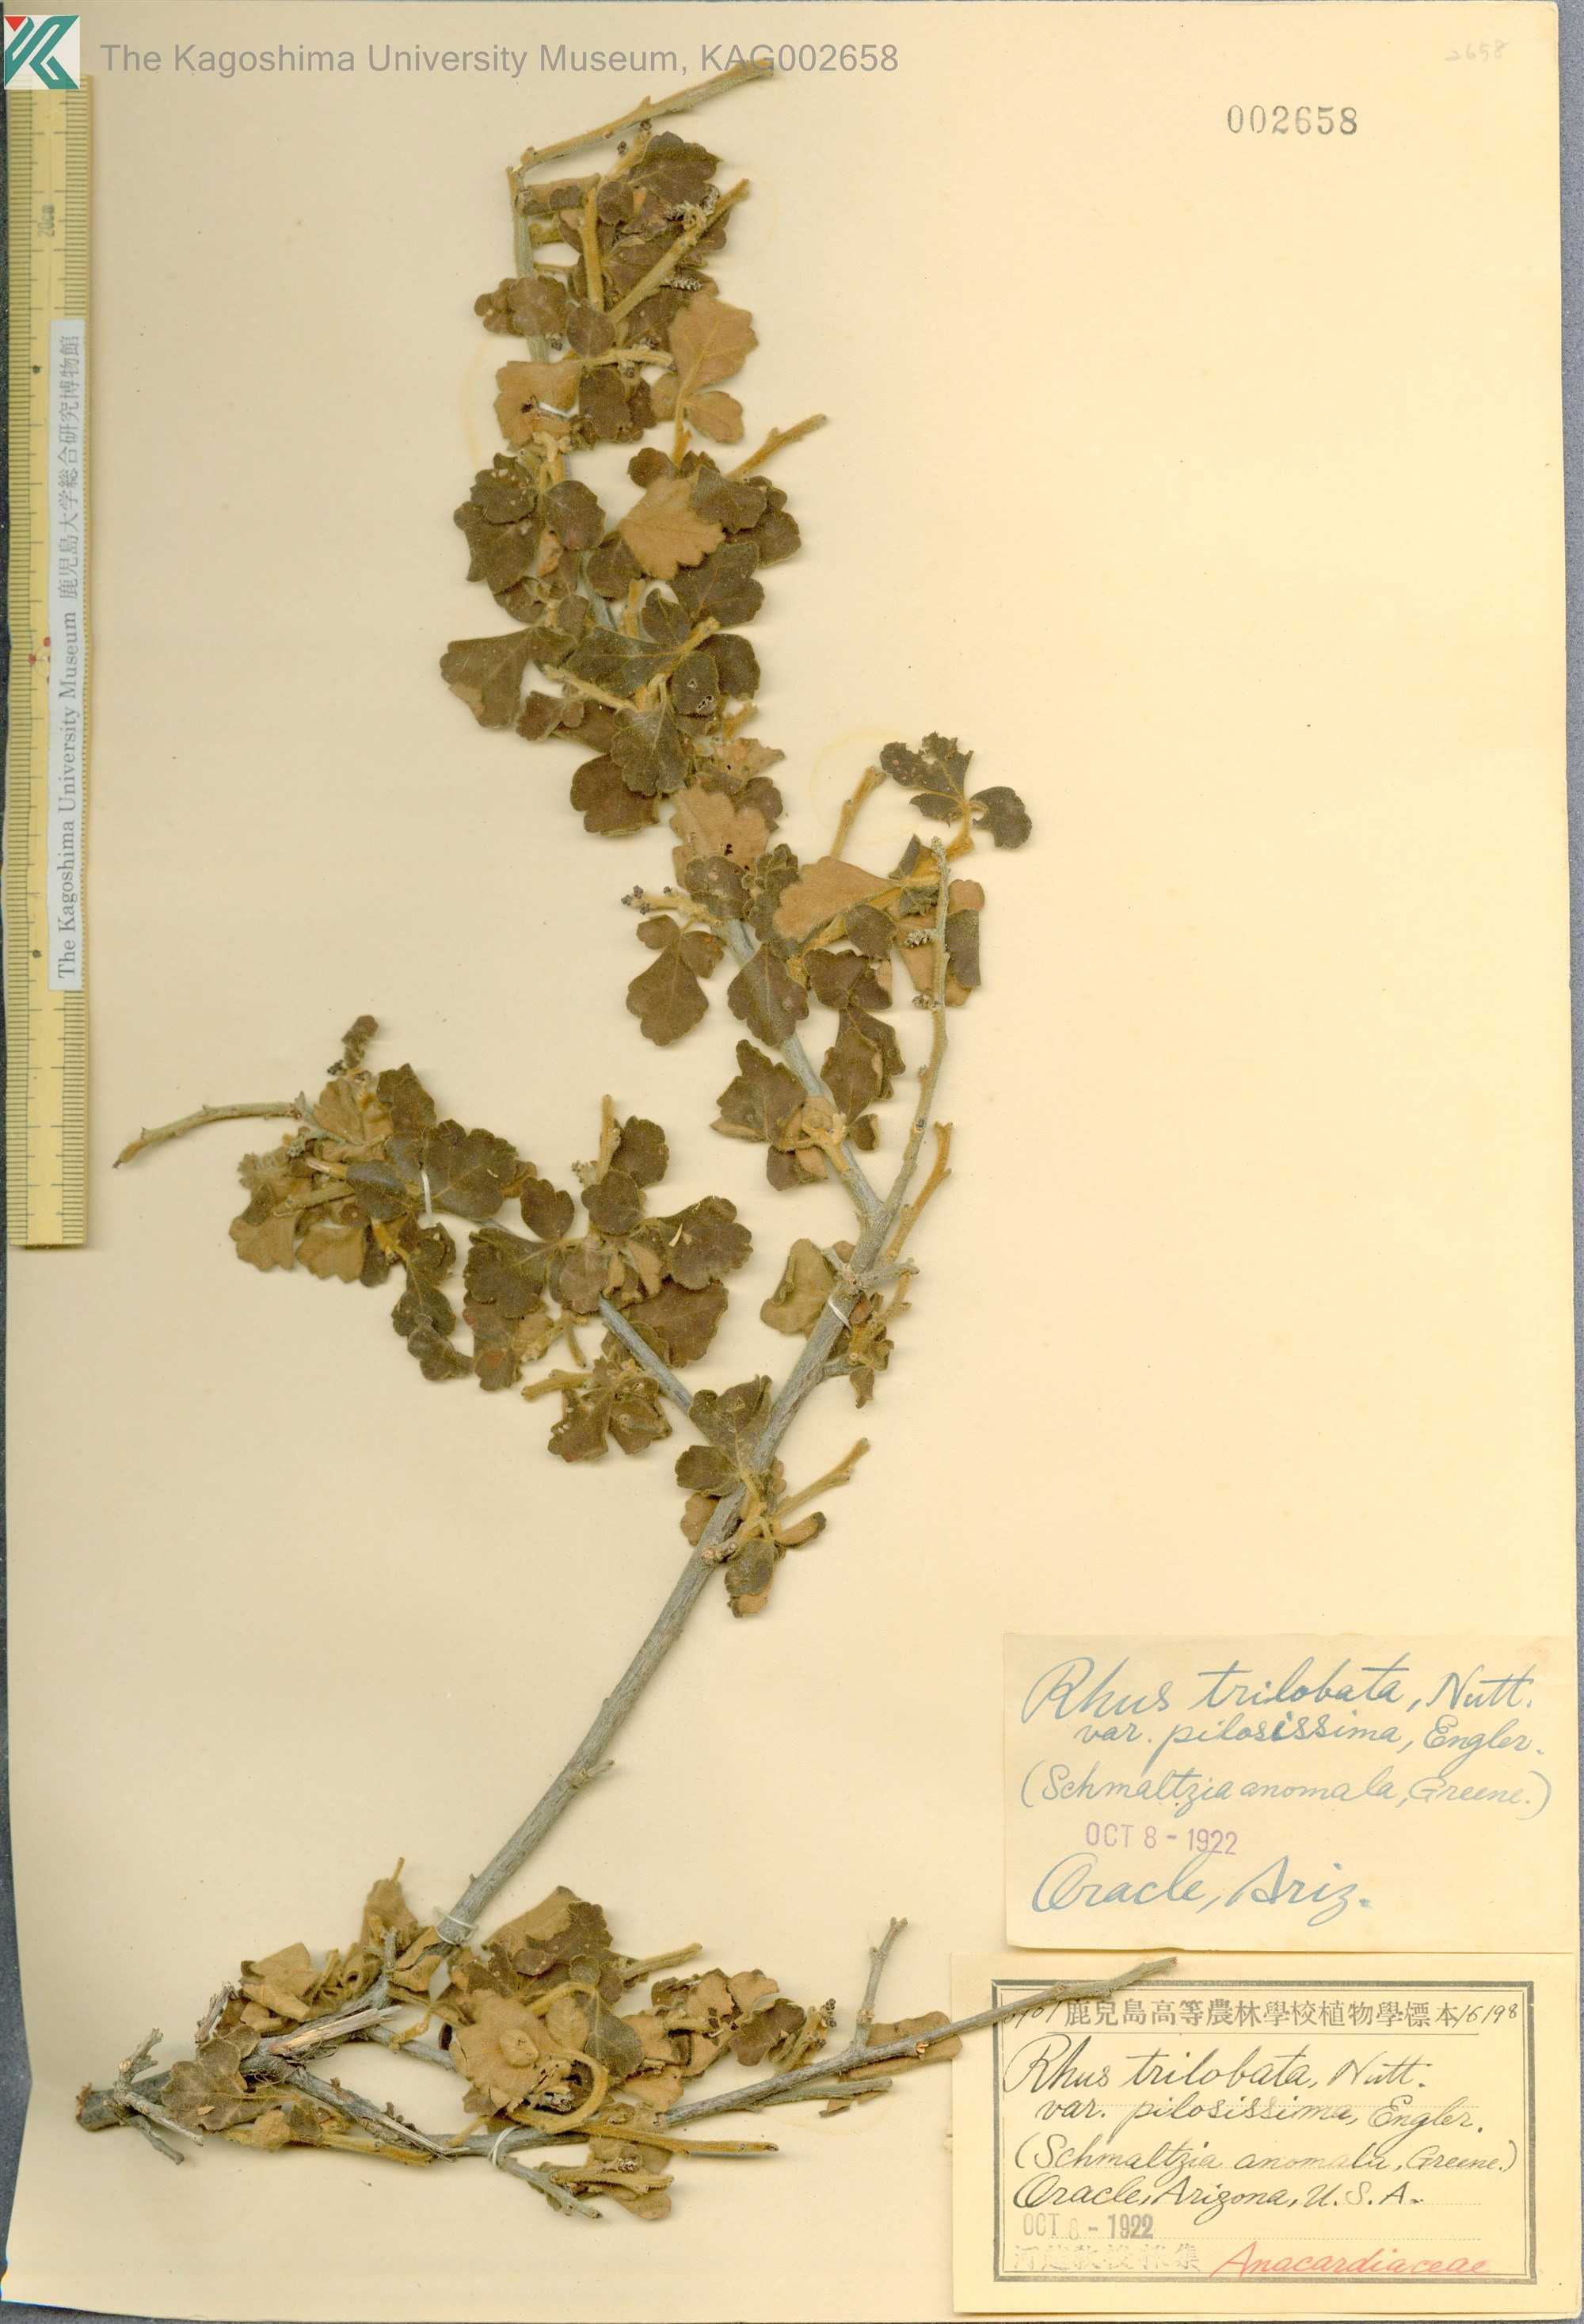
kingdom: Plantae
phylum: Tracheophyta
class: Magnoliopsida
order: Sapindales
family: Anacardiaceae
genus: Rhus
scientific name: Rhus trilobata
